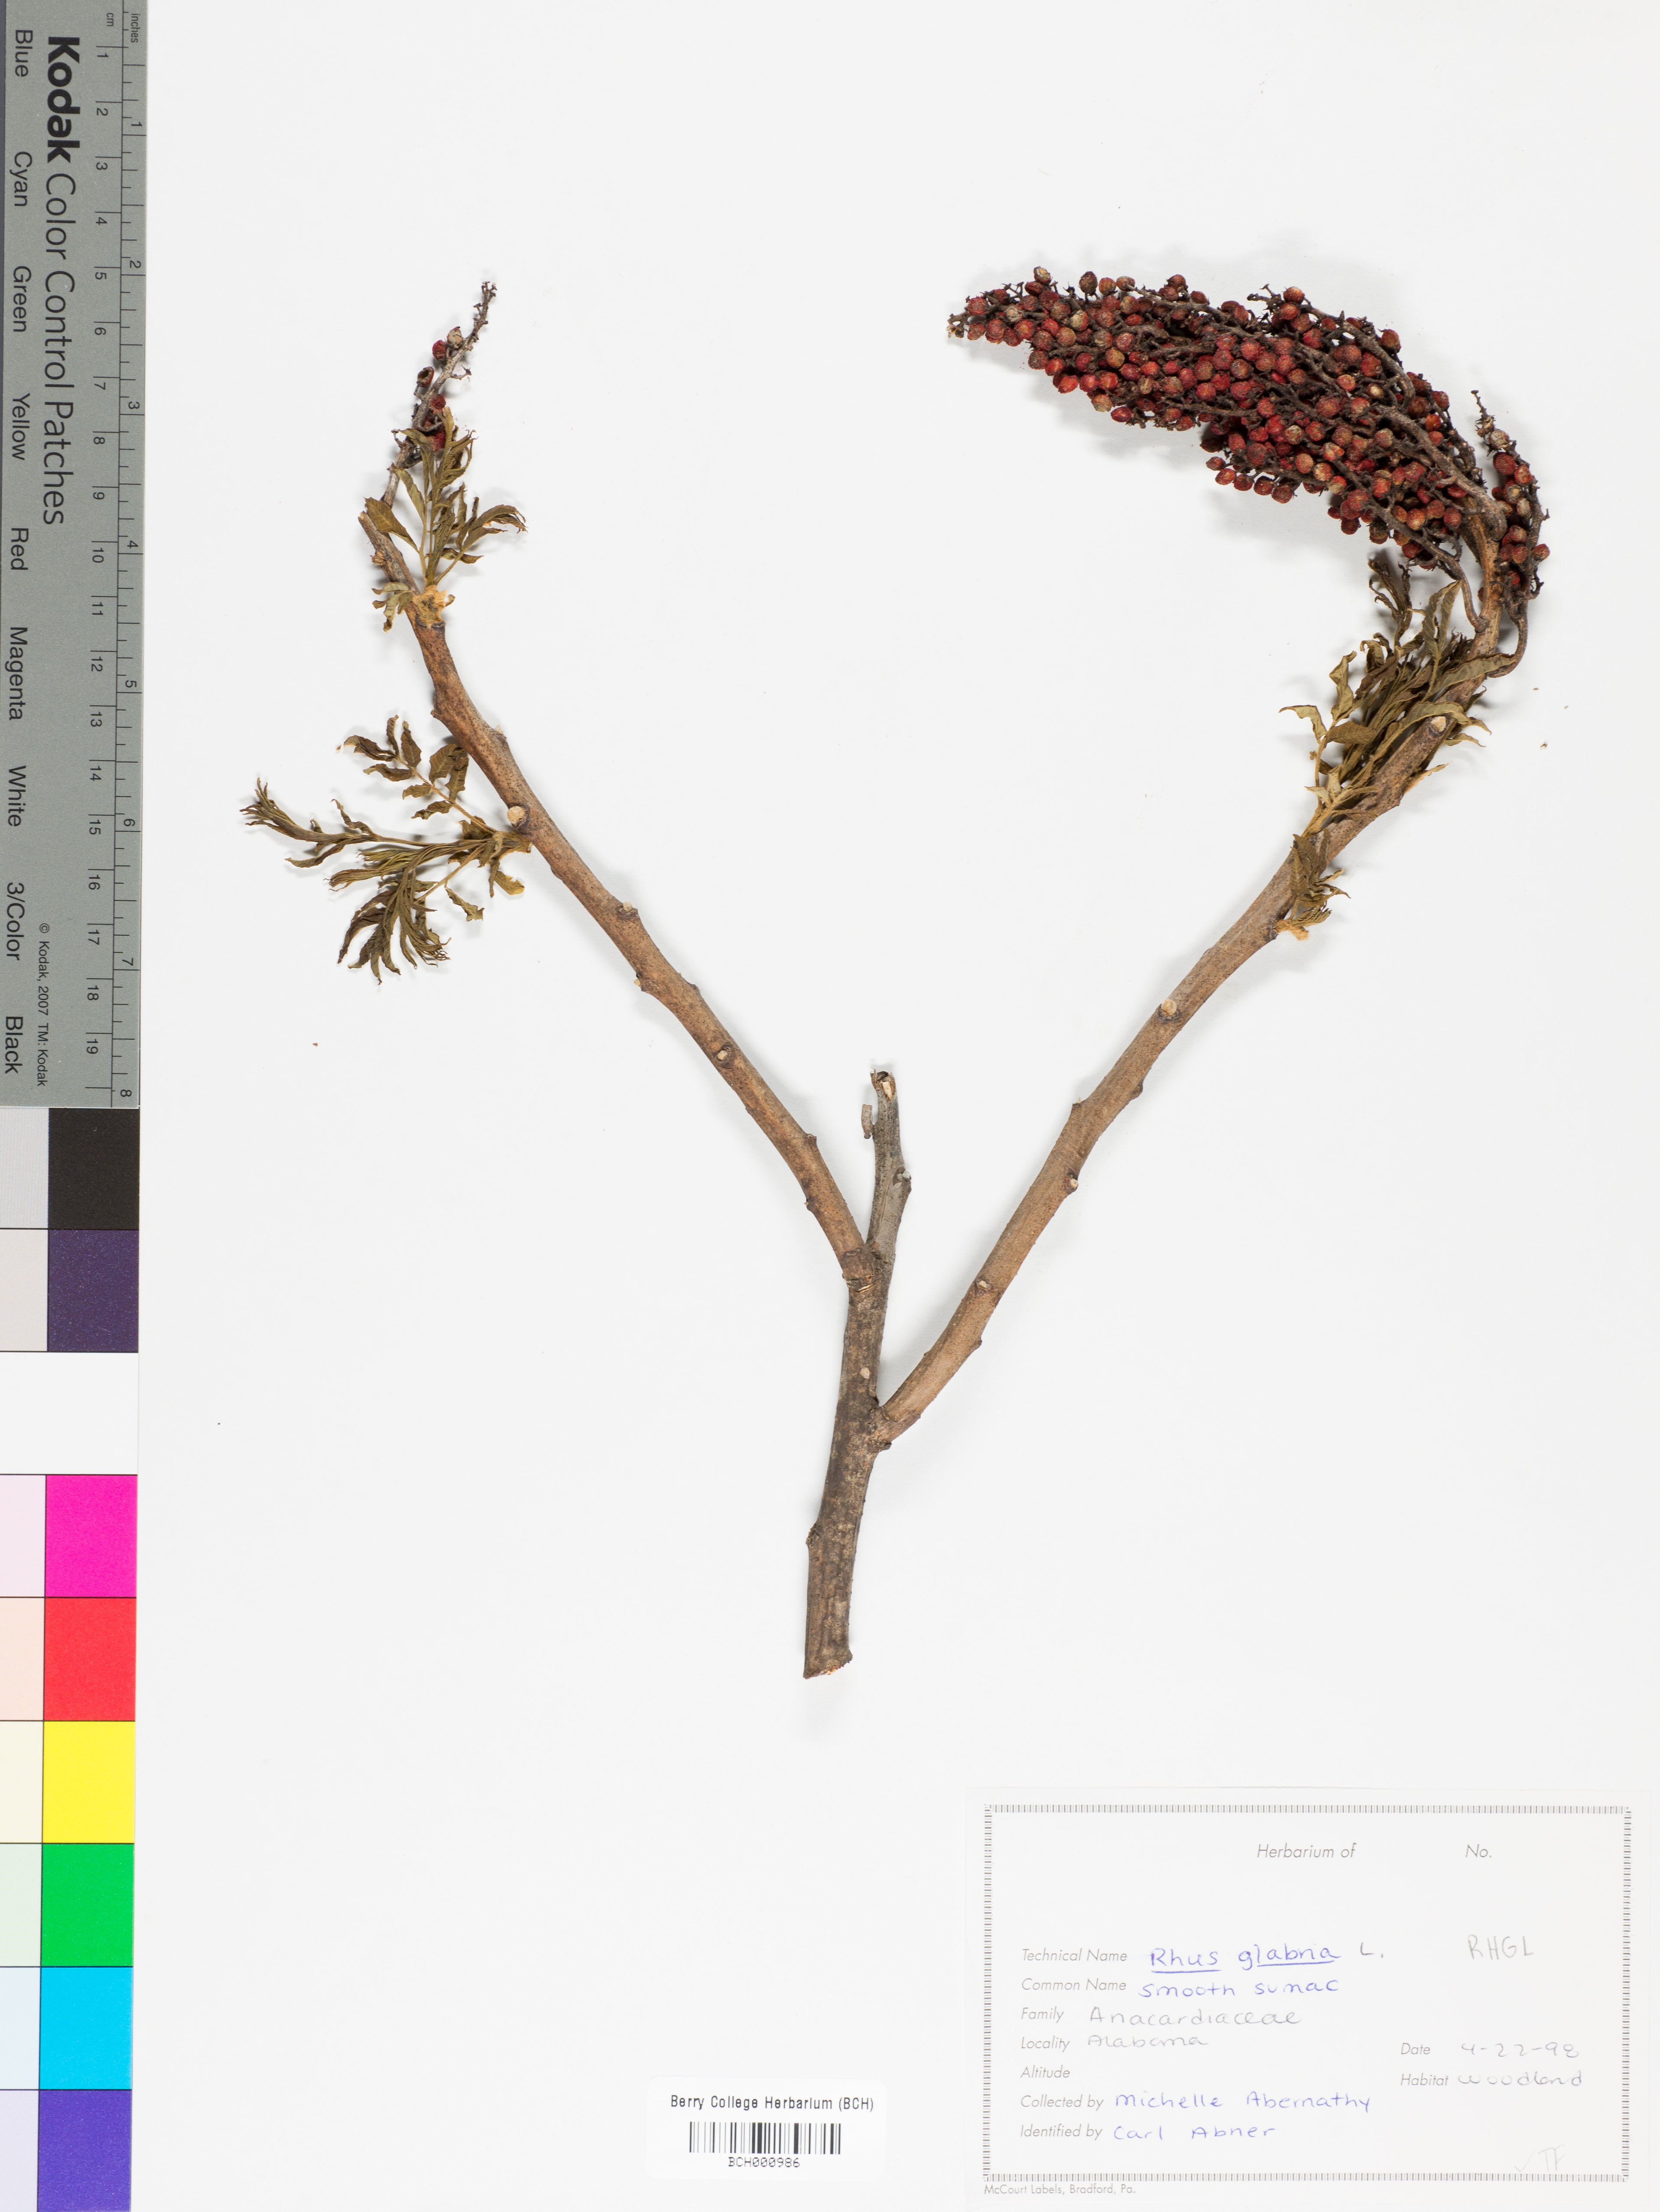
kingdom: Plantae
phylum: Tracheophyta
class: Magnoliopsida
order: Sapindales
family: Anacardiaceae
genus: Rhus
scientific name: Rhus glabra
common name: Scarlet sumac
